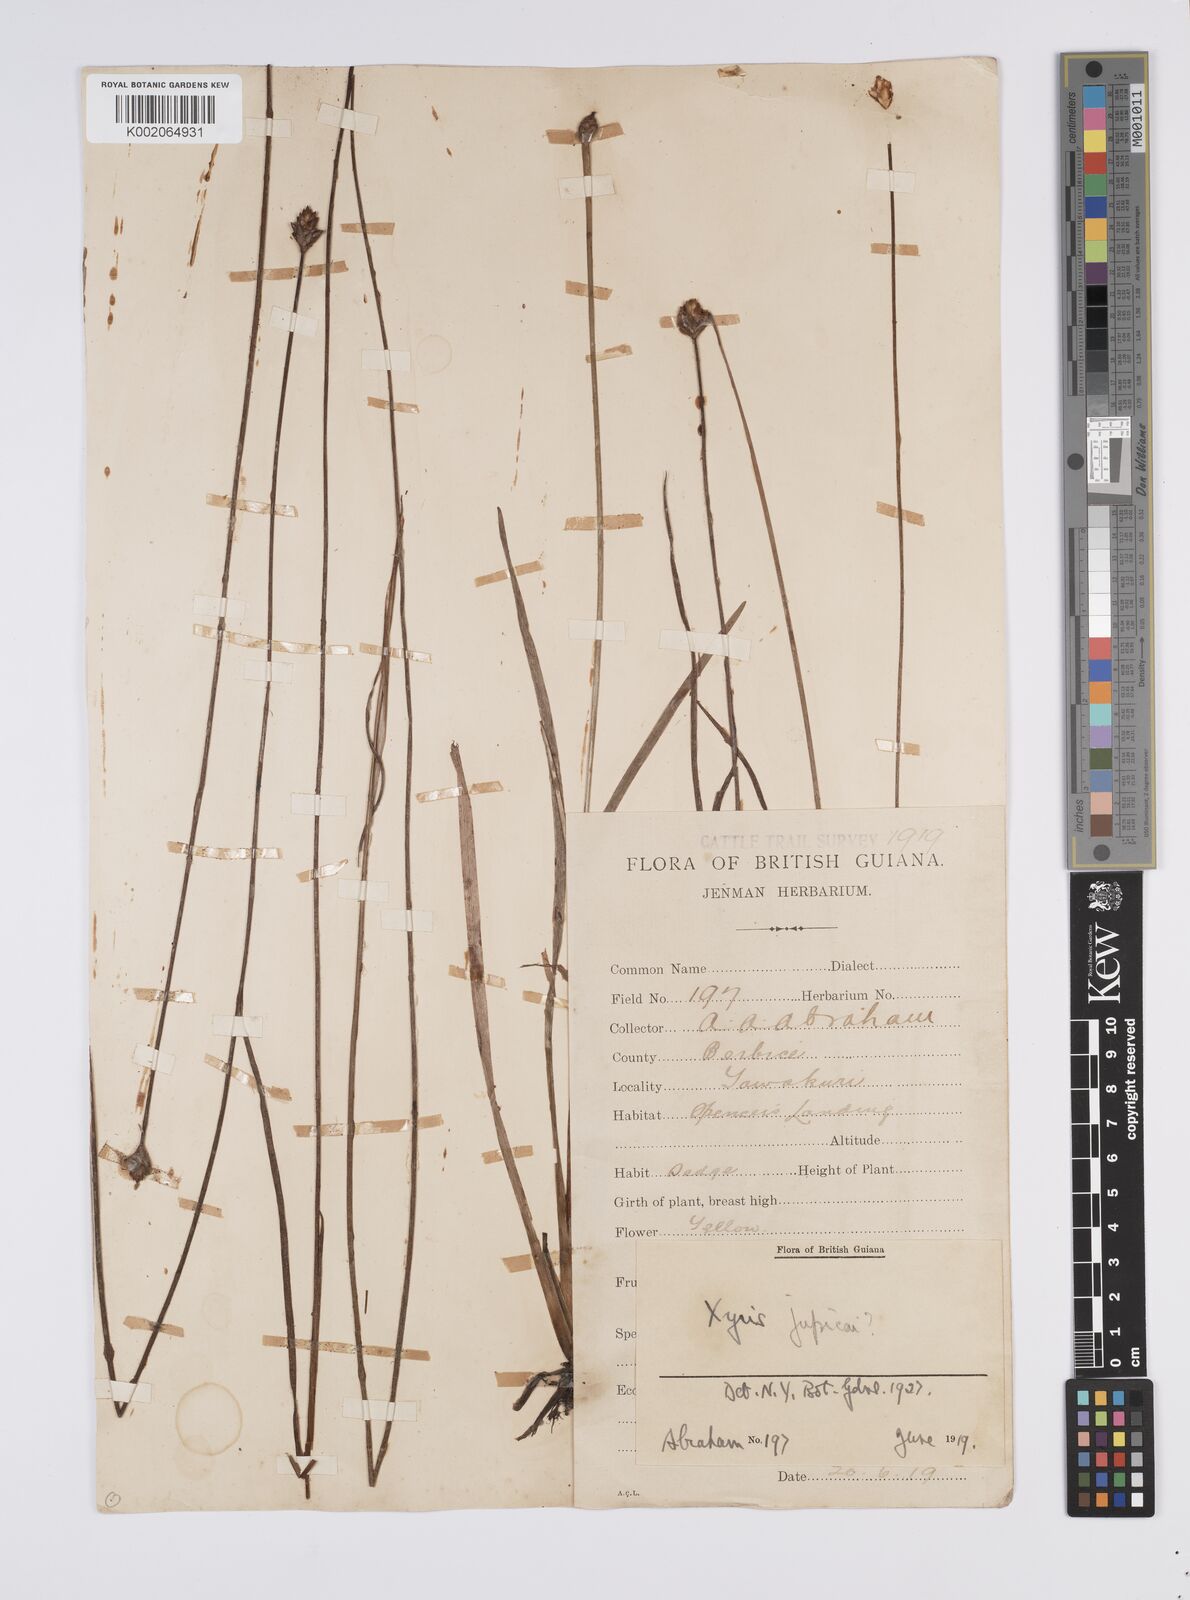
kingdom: Plantae
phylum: Tracheophyta
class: Liliopsida
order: Poales
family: Xyridaceae
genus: Xyris
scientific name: Xyris jupicai
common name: Richard's yelloweyed grass
